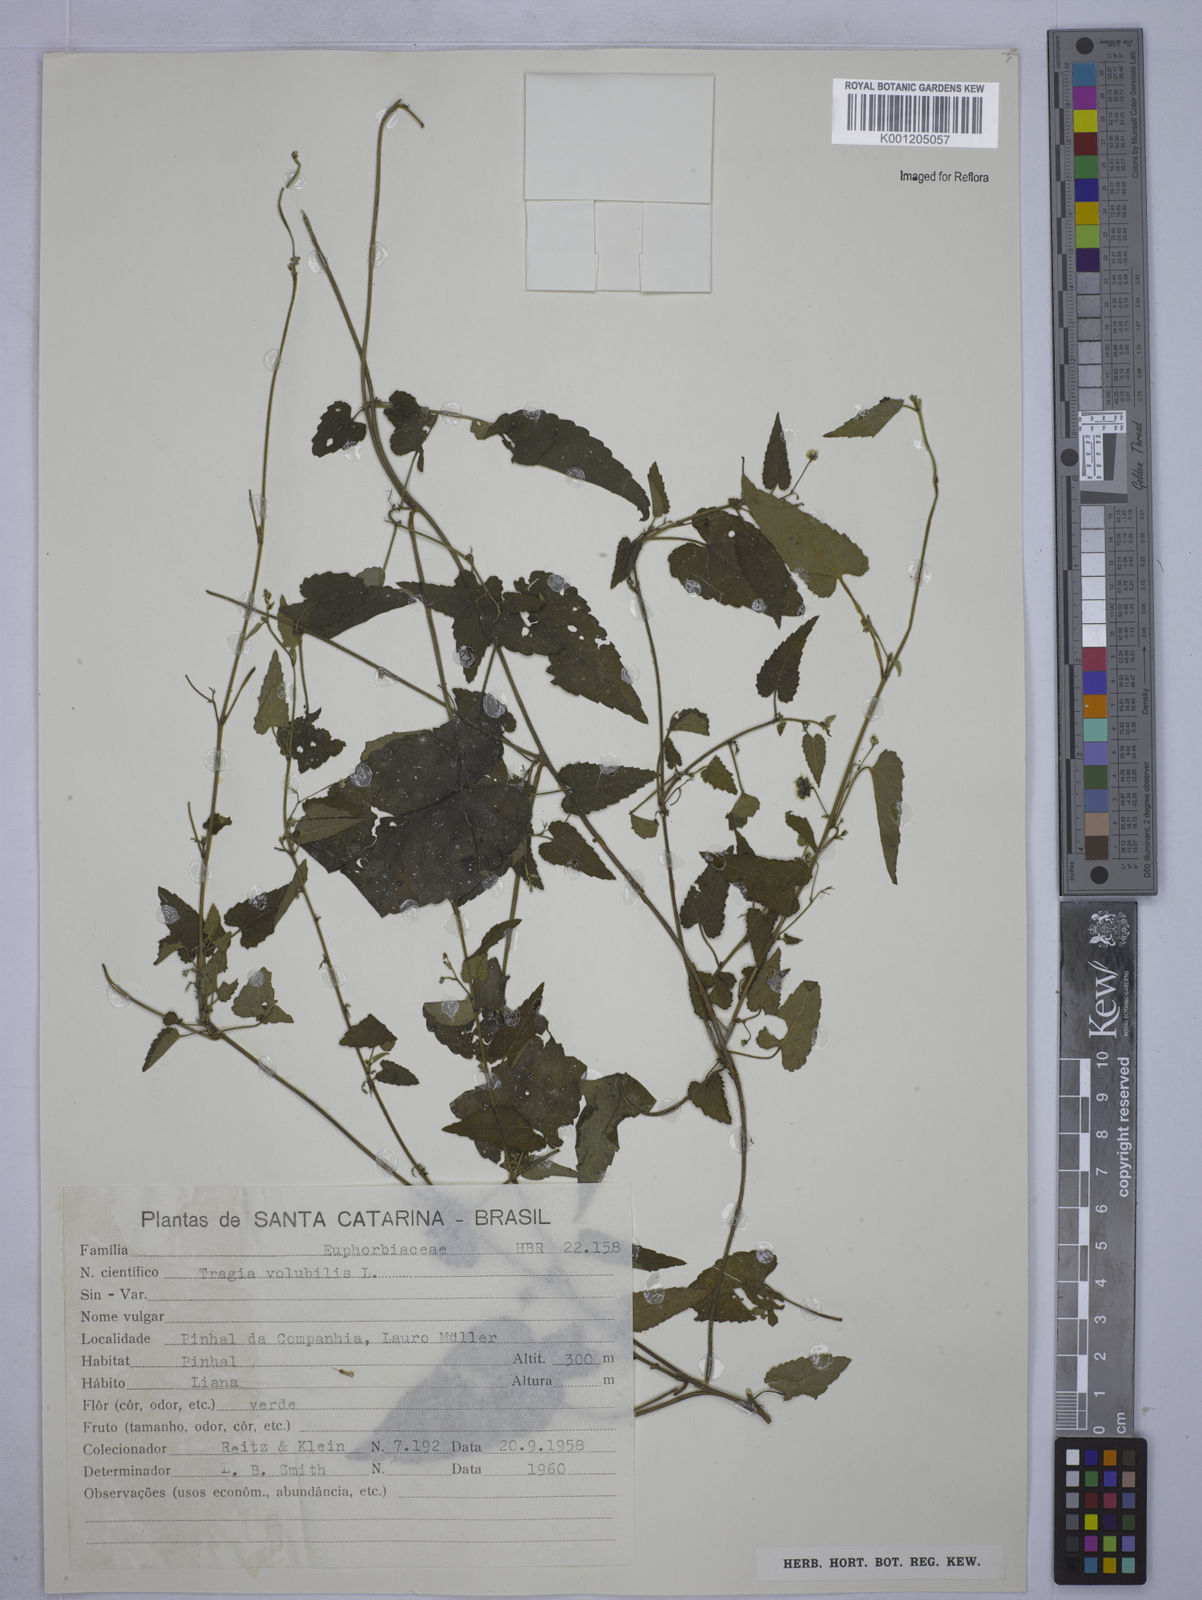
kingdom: Plantae
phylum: Tracheophyta
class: Magnoliopsida
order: Malpighiales
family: Euphorbiaceae
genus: Tragia
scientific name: Tragia volubilis
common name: Twining cow-itch
